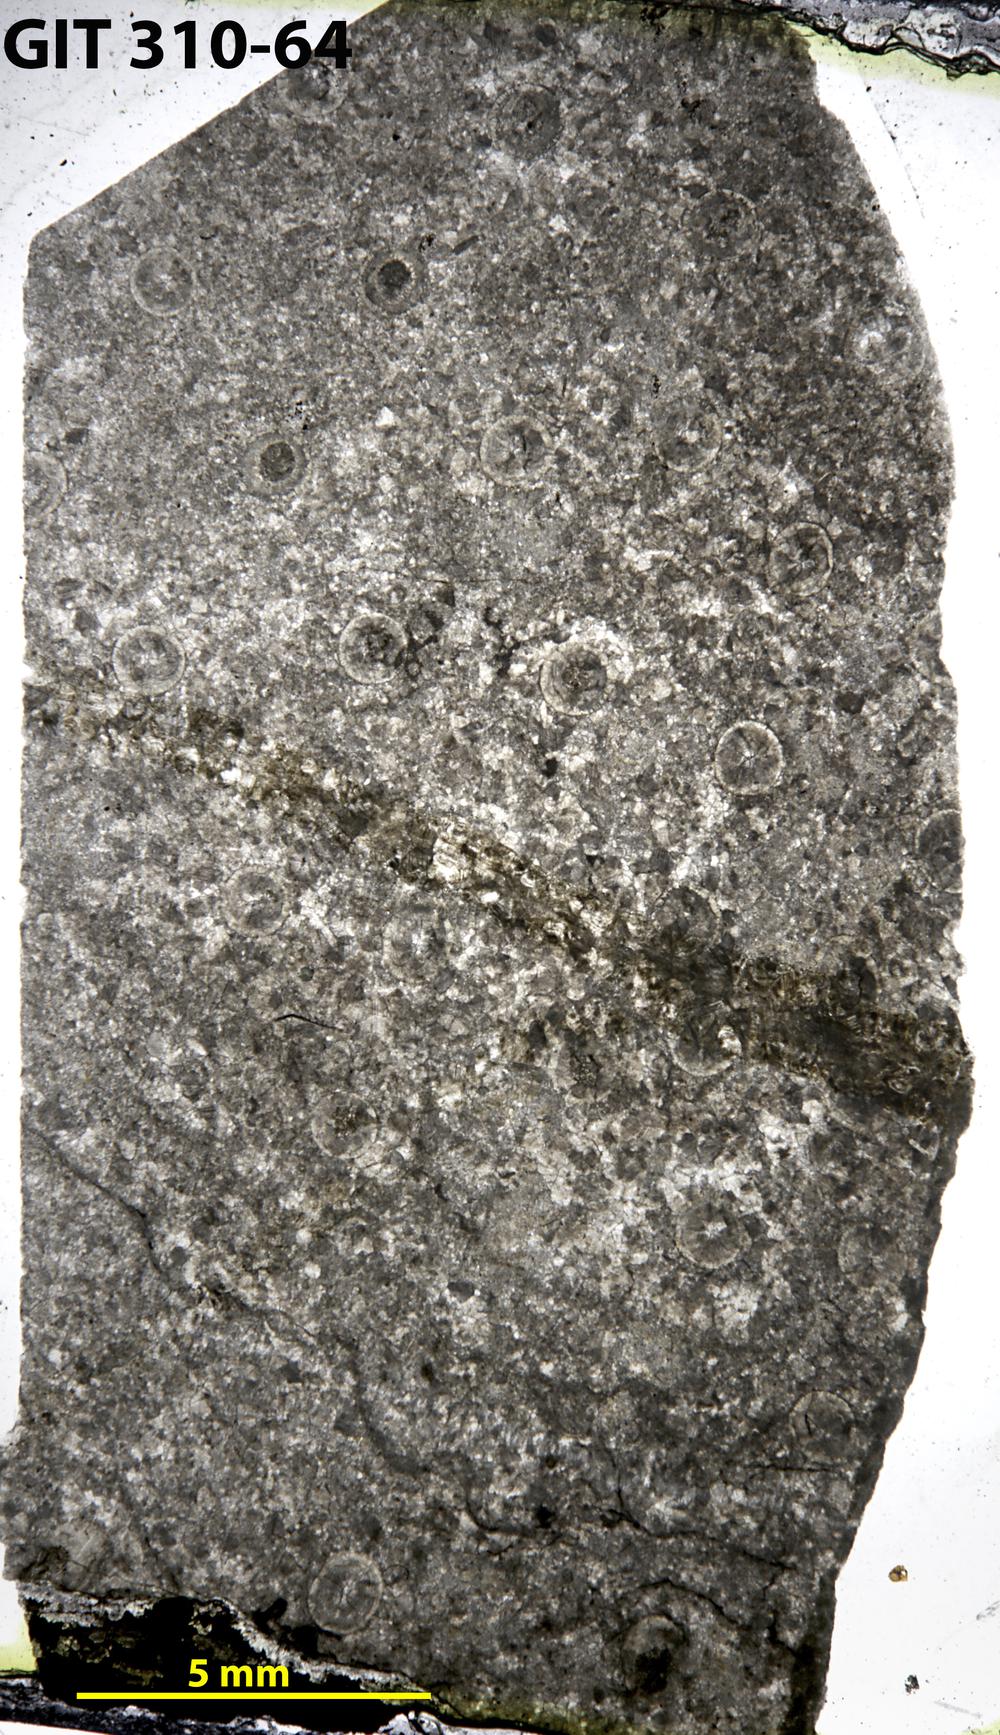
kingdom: Animalia
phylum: Porifera
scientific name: Porifera
